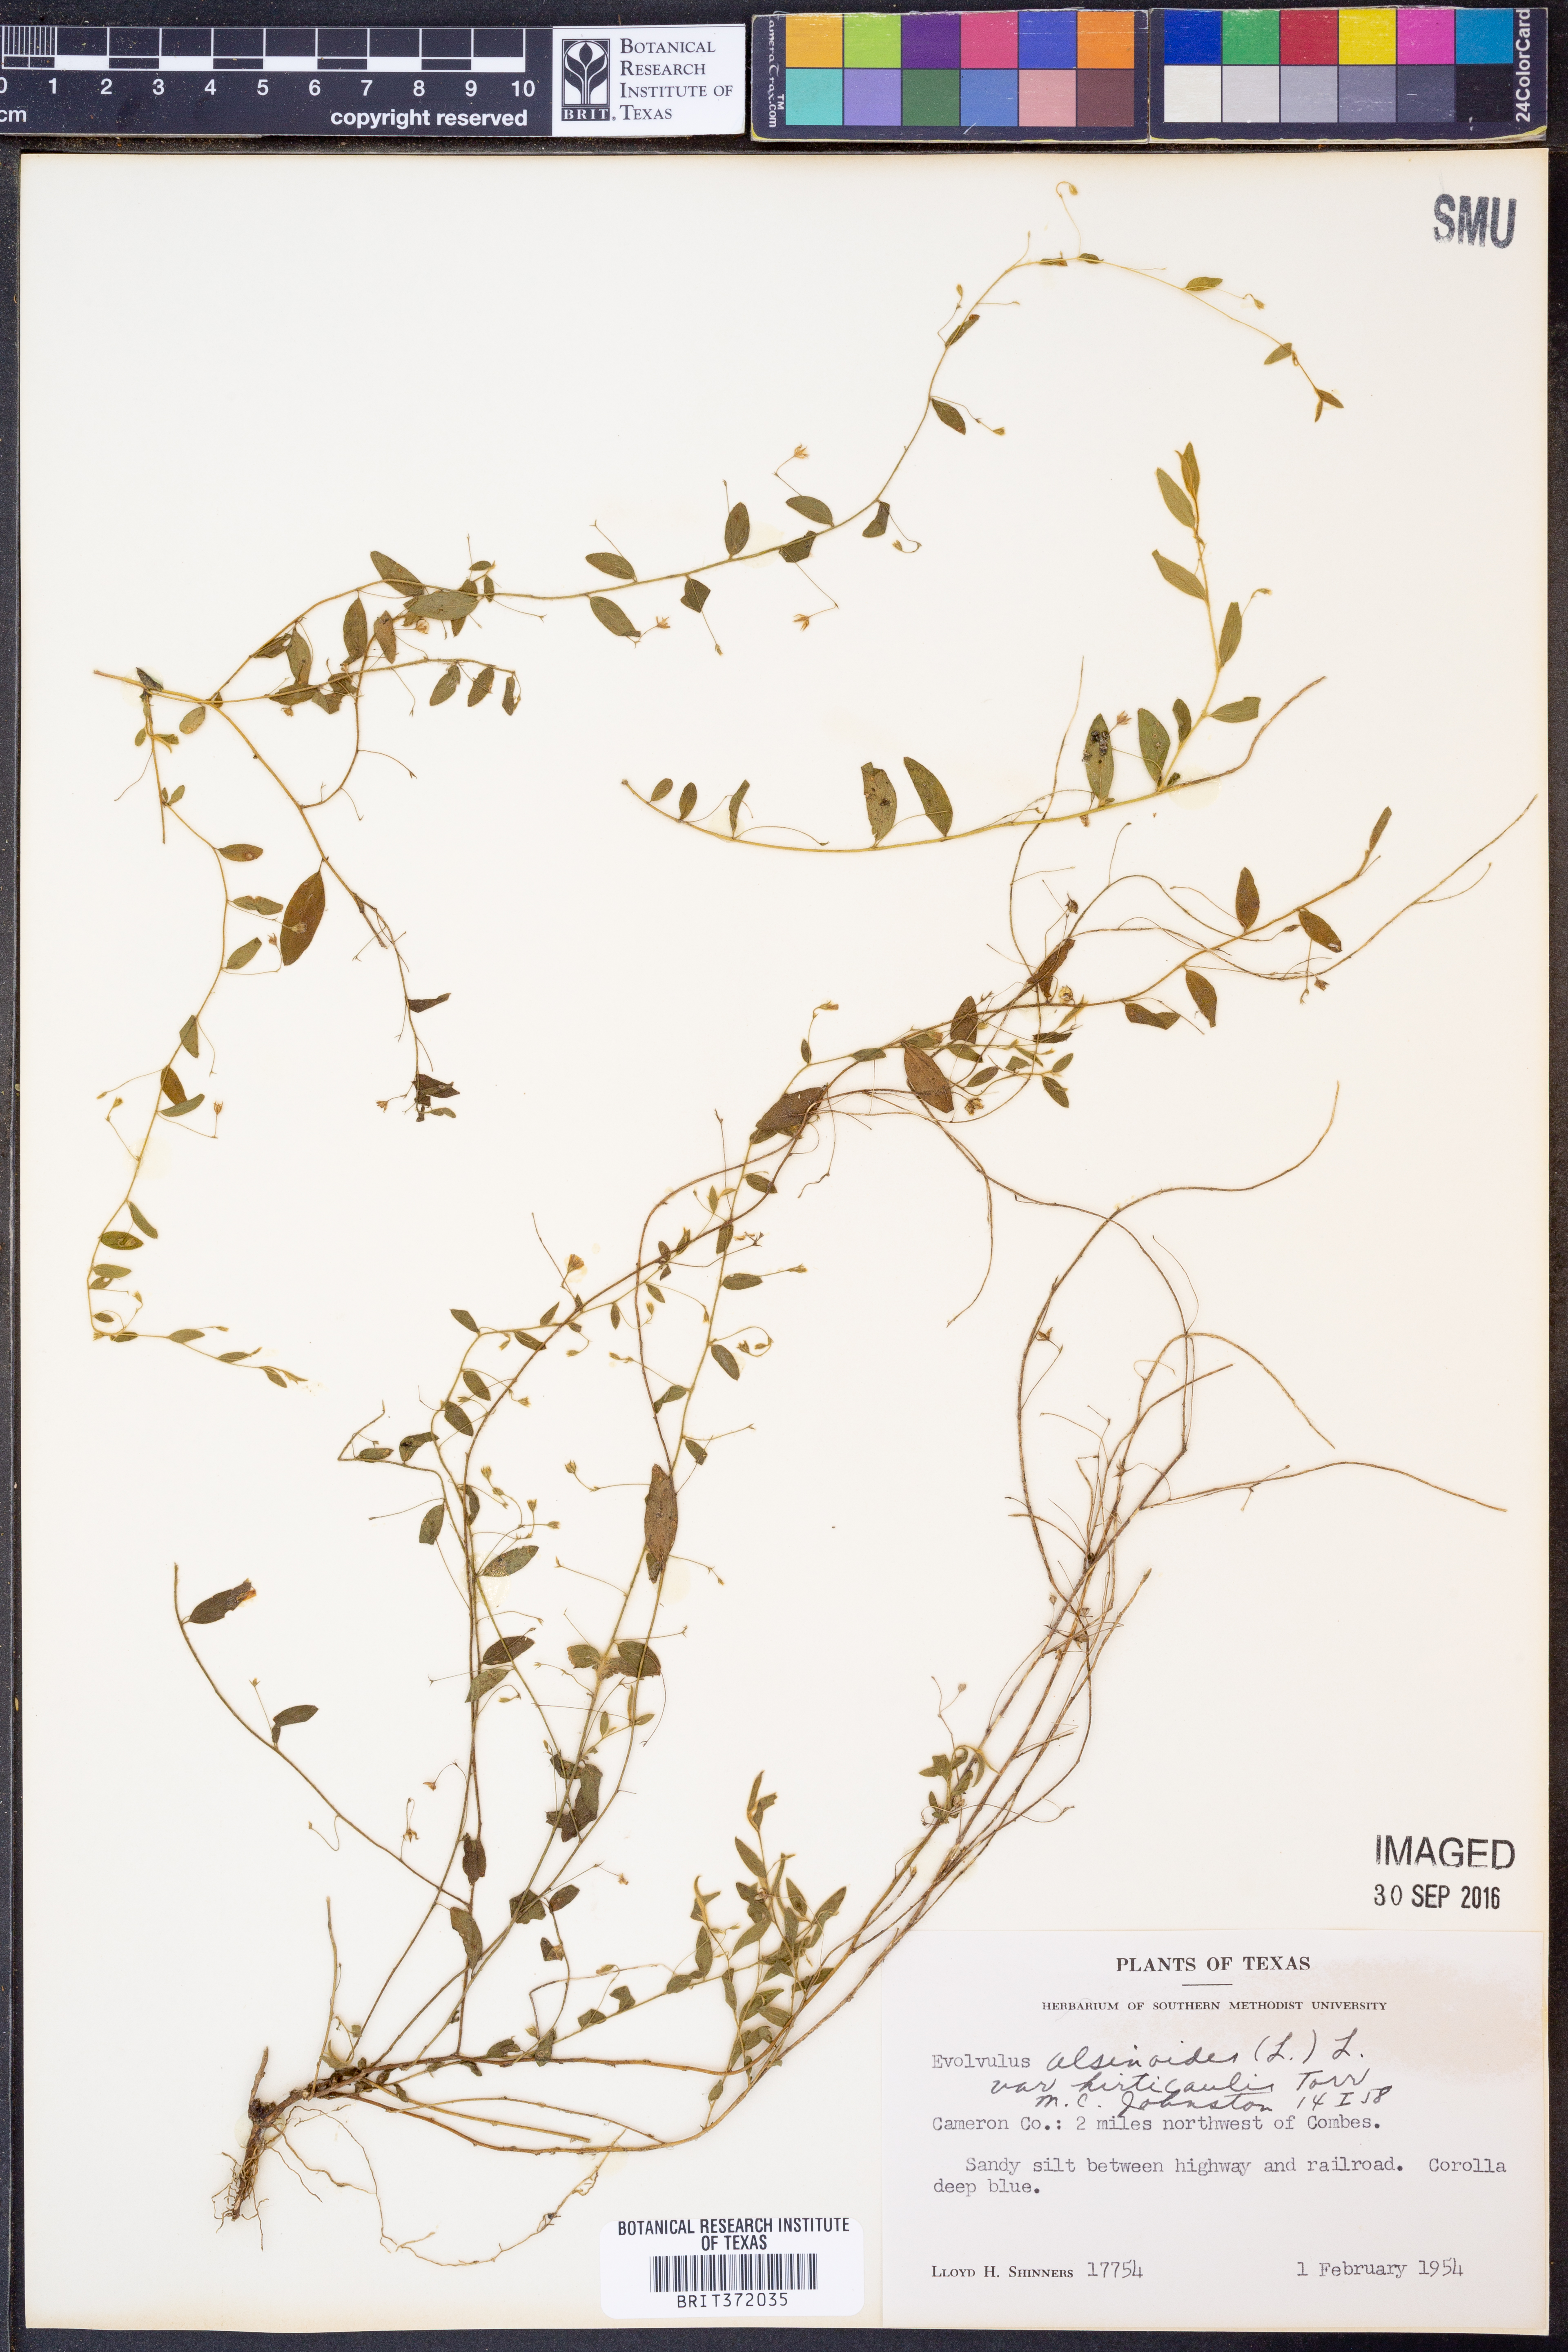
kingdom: Plantae
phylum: Tracheophyta
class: Magnoliopsida
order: Solanales
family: Convolvulaceae
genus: Evolvulus
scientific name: Evolvulus alsinoides
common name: Slender dwarf morning-glory
